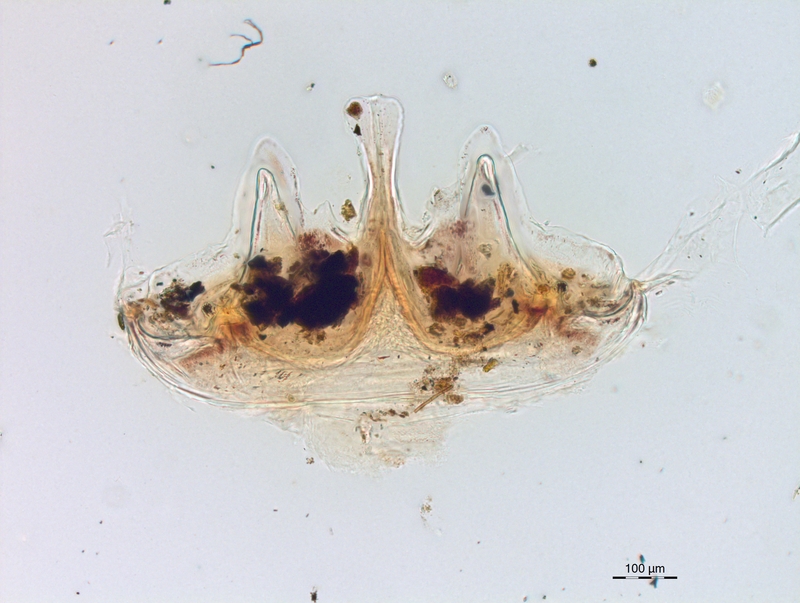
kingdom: Animalia
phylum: Arthropoda
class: Diplopoda
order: Chordeumatida
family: Craspedosomatidae
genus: Craspedosoma
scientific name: Craspedosoma rawlinsii
